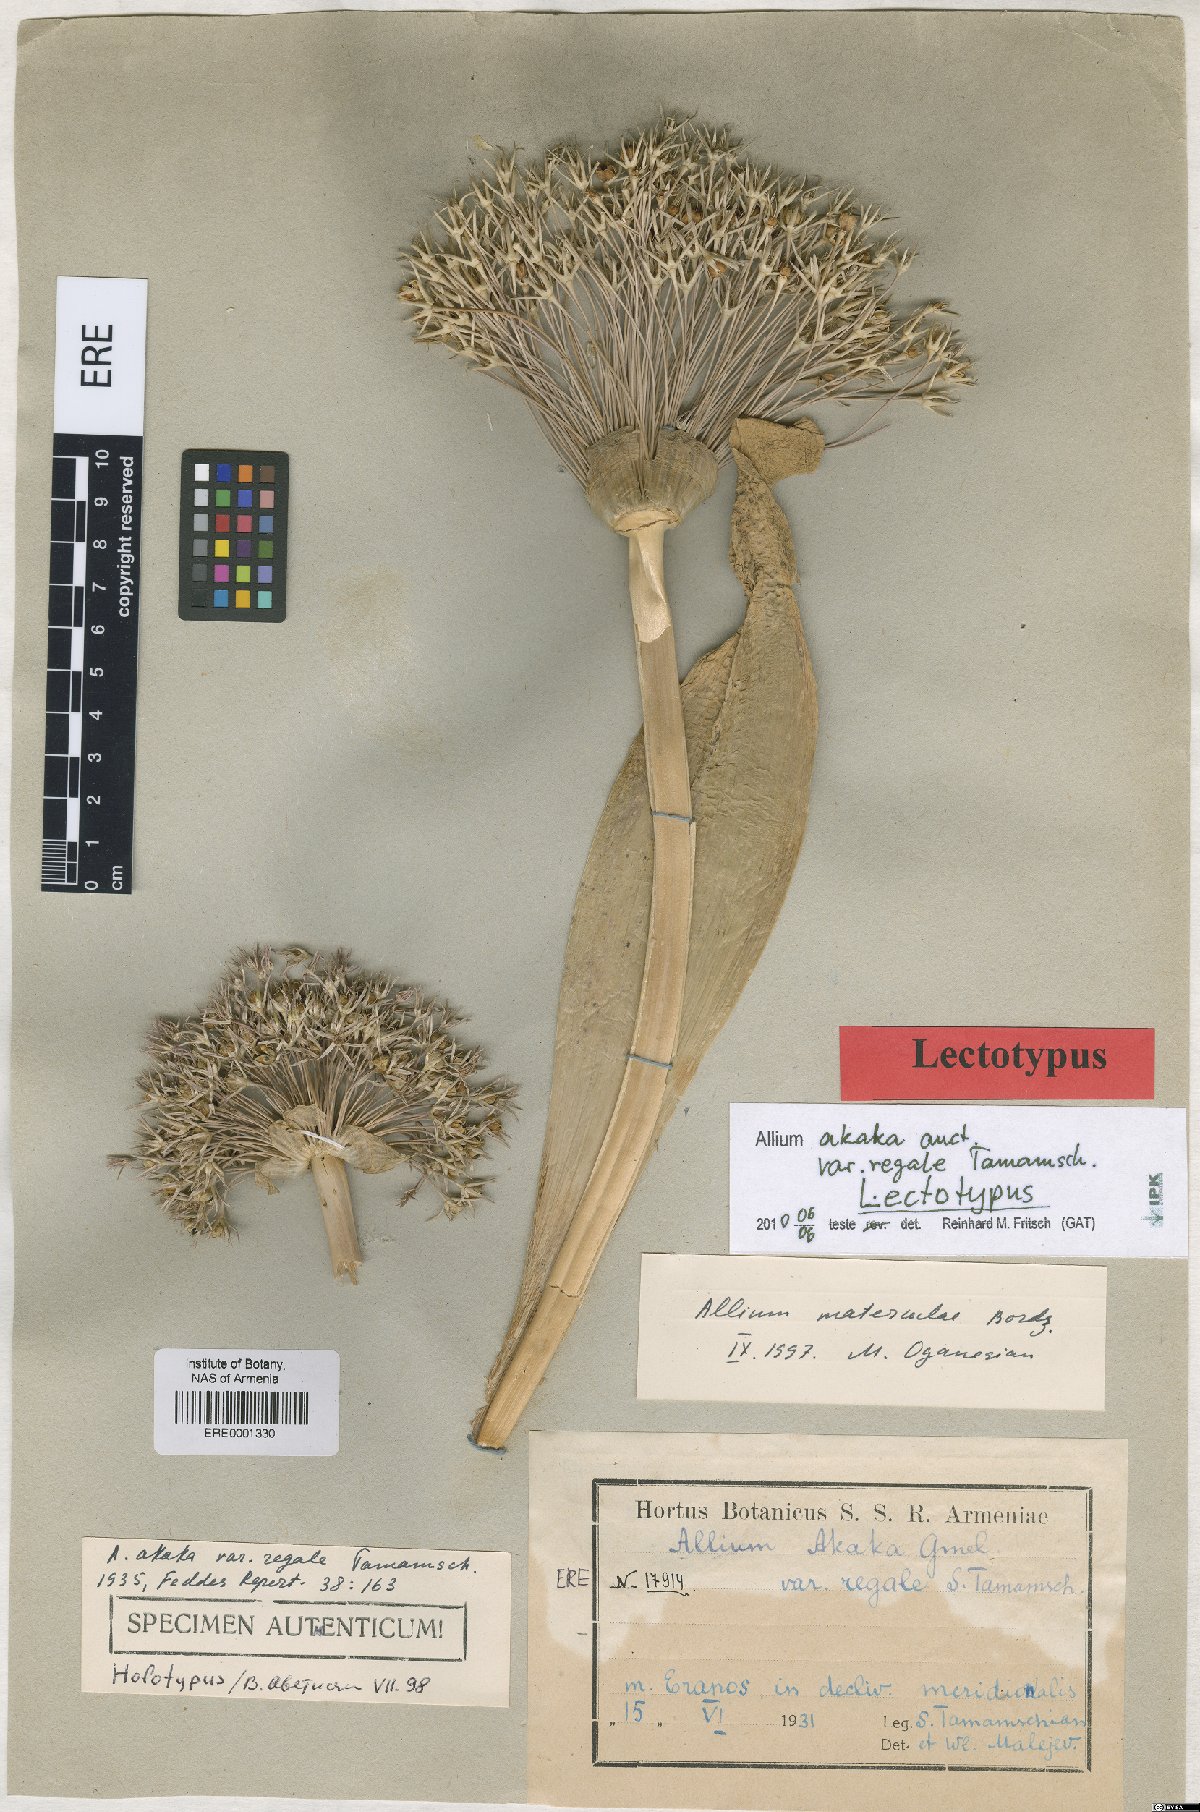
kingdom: Plantae
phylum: Tracheophyta
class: Liliopsida
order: Asparagales
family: Amaryllidaceae
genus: Allium
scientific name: Allium materculae
